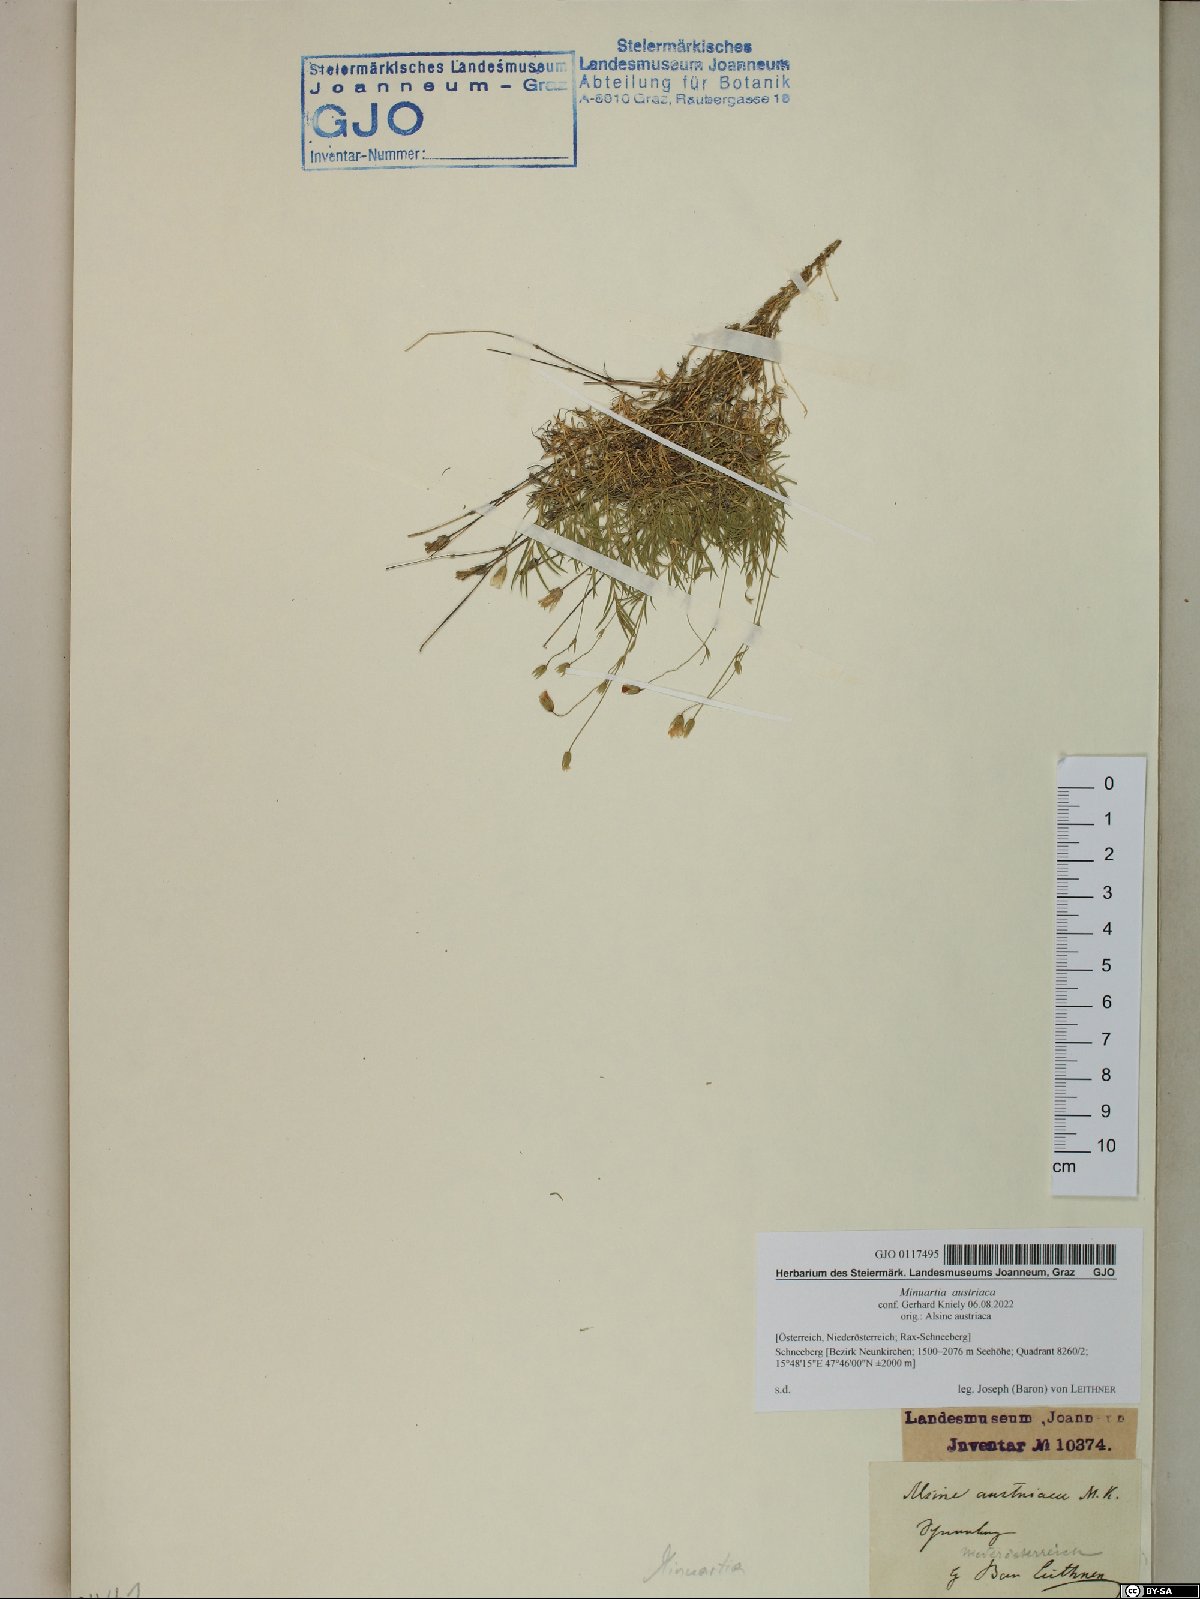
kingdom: Plantae
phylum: Tracheophyta
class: Magnoliopsida
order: Caryophyllales
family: Caryophyllaceae
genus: Sabulina
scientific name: Sabulina austriaca
